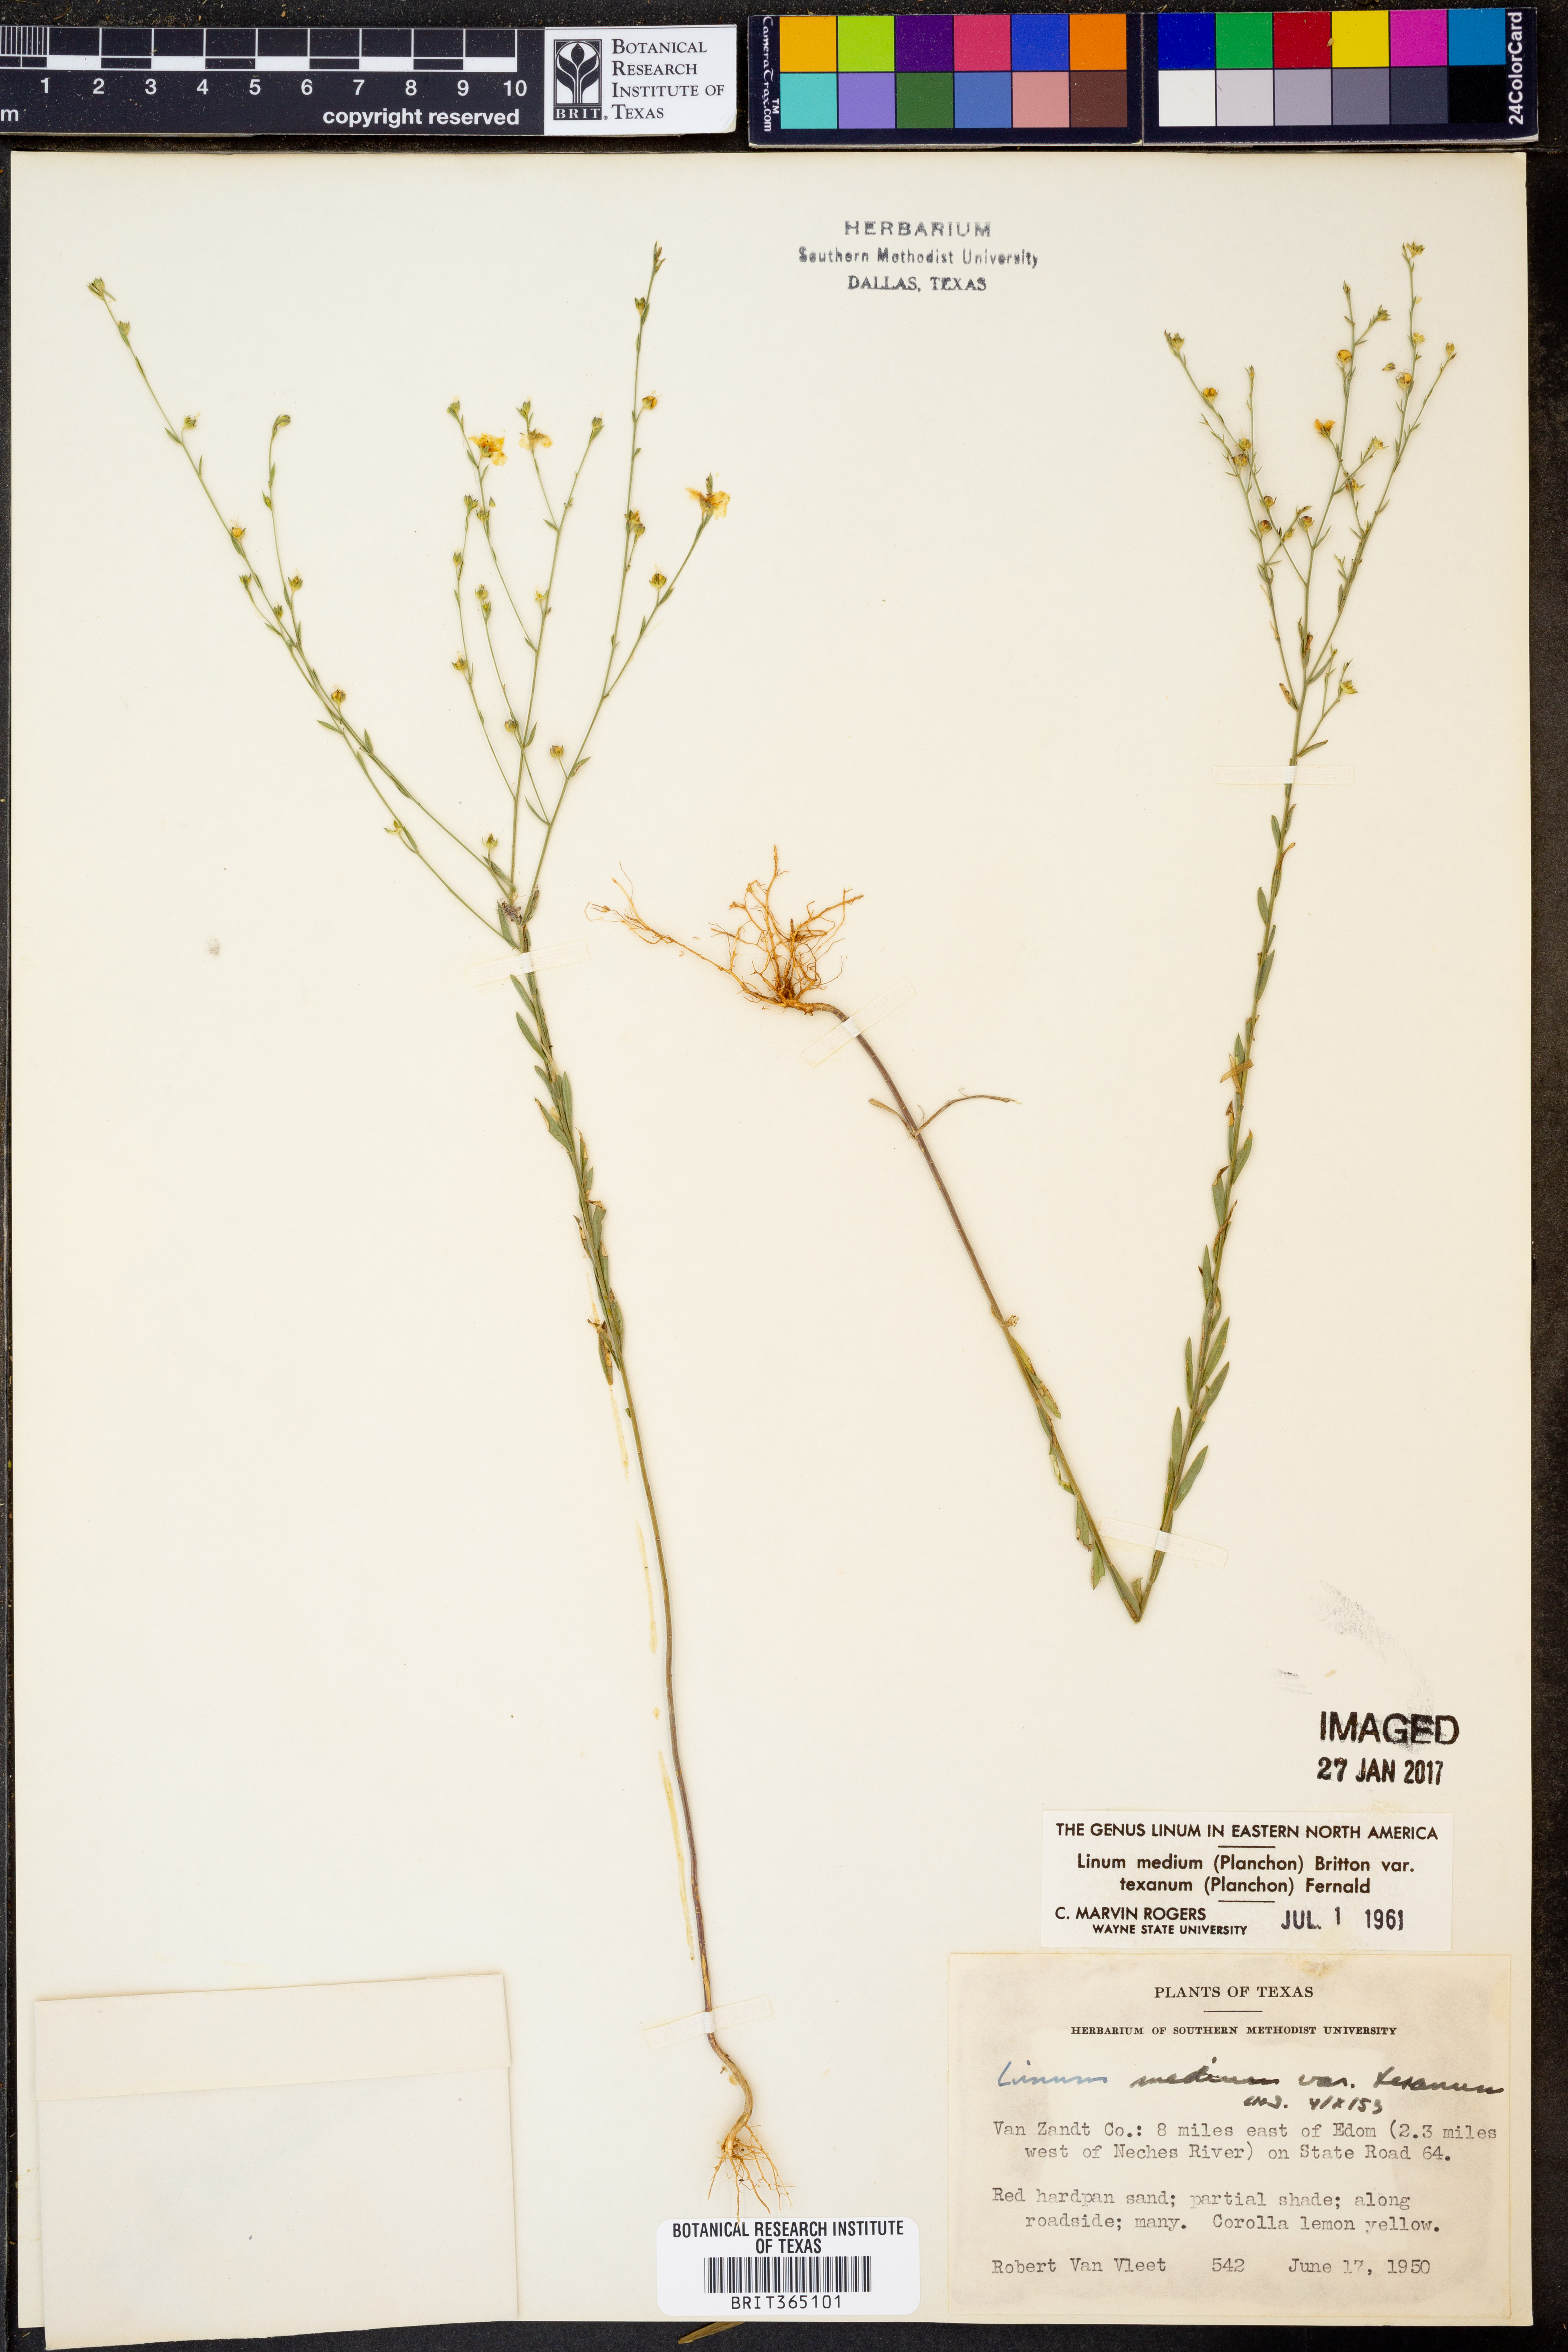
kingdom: Plantae
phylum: Tracheophyta
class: Magnoliopsida
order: Malpighiales
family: Linaceae
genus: Linum
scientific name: Linum medium
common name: Stiff yellow flax
